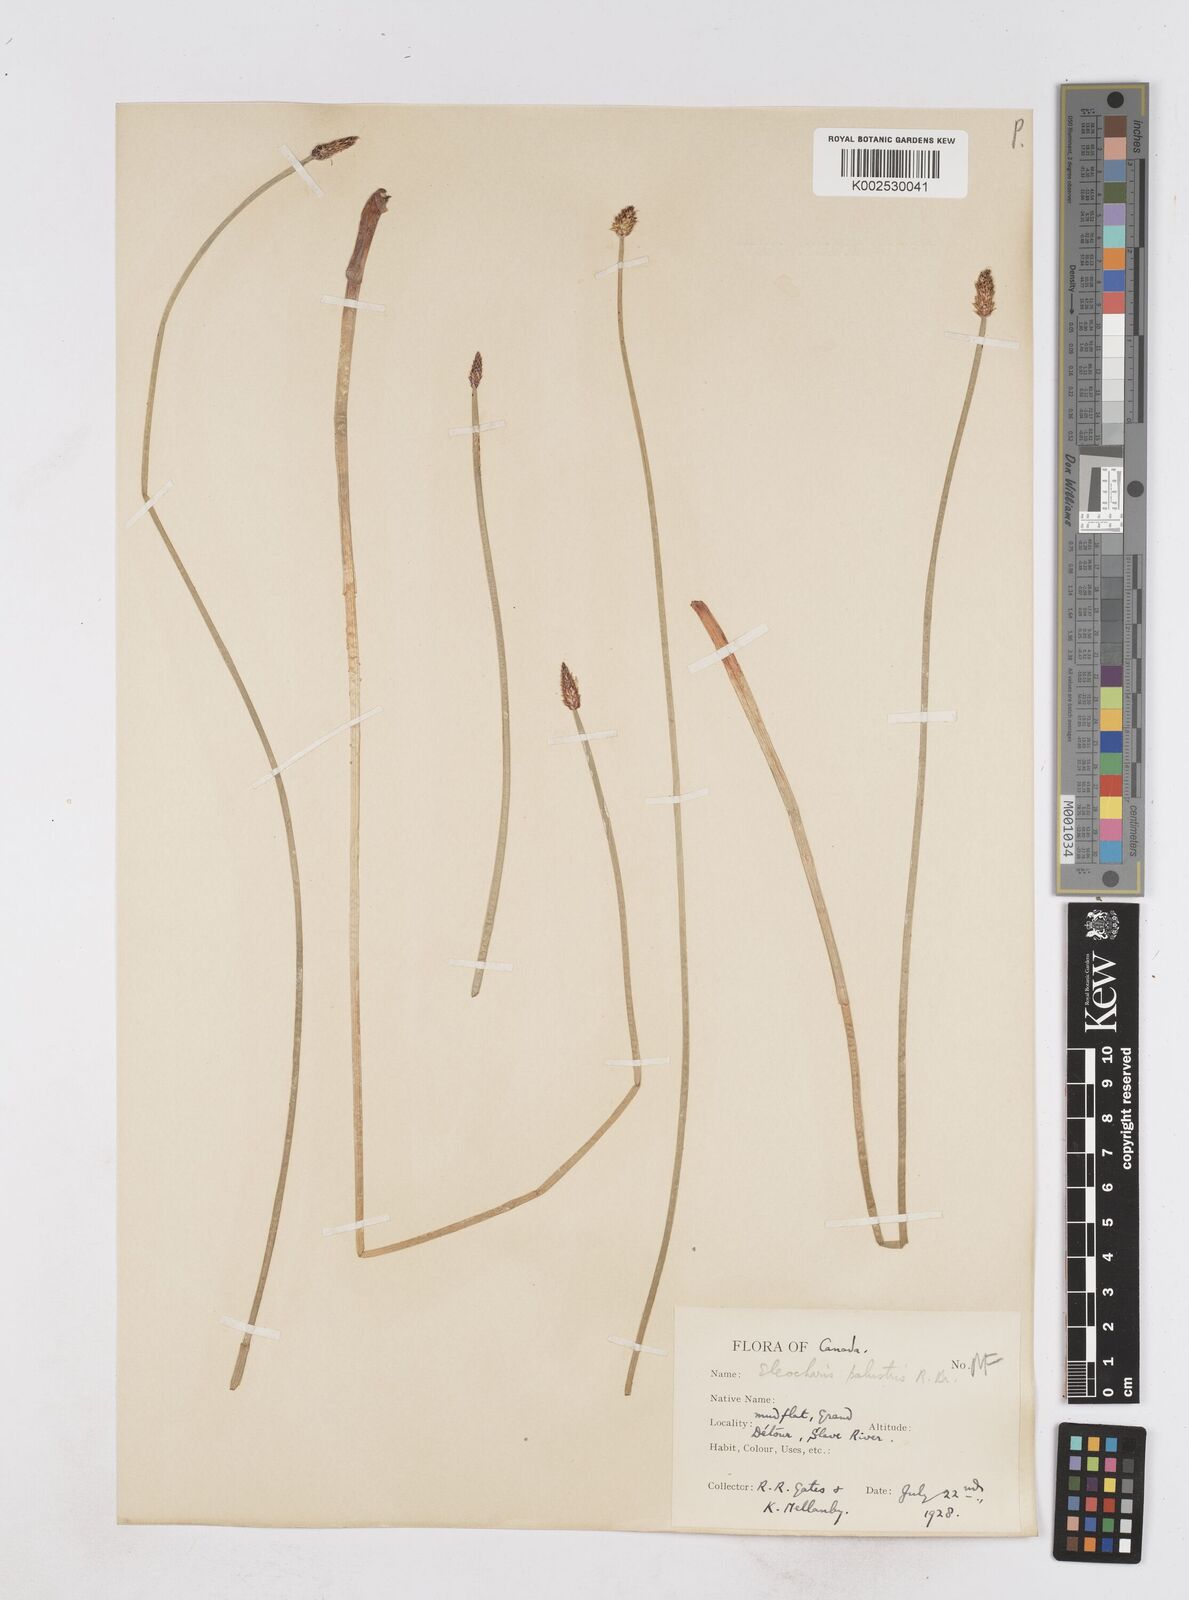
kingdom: Plantae
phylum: Tracheophyta
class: Liliopsida
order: Poales
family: Cyperaceae
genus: Eleocharis
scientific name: Eleocharis palustris
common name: Common spike-rush
